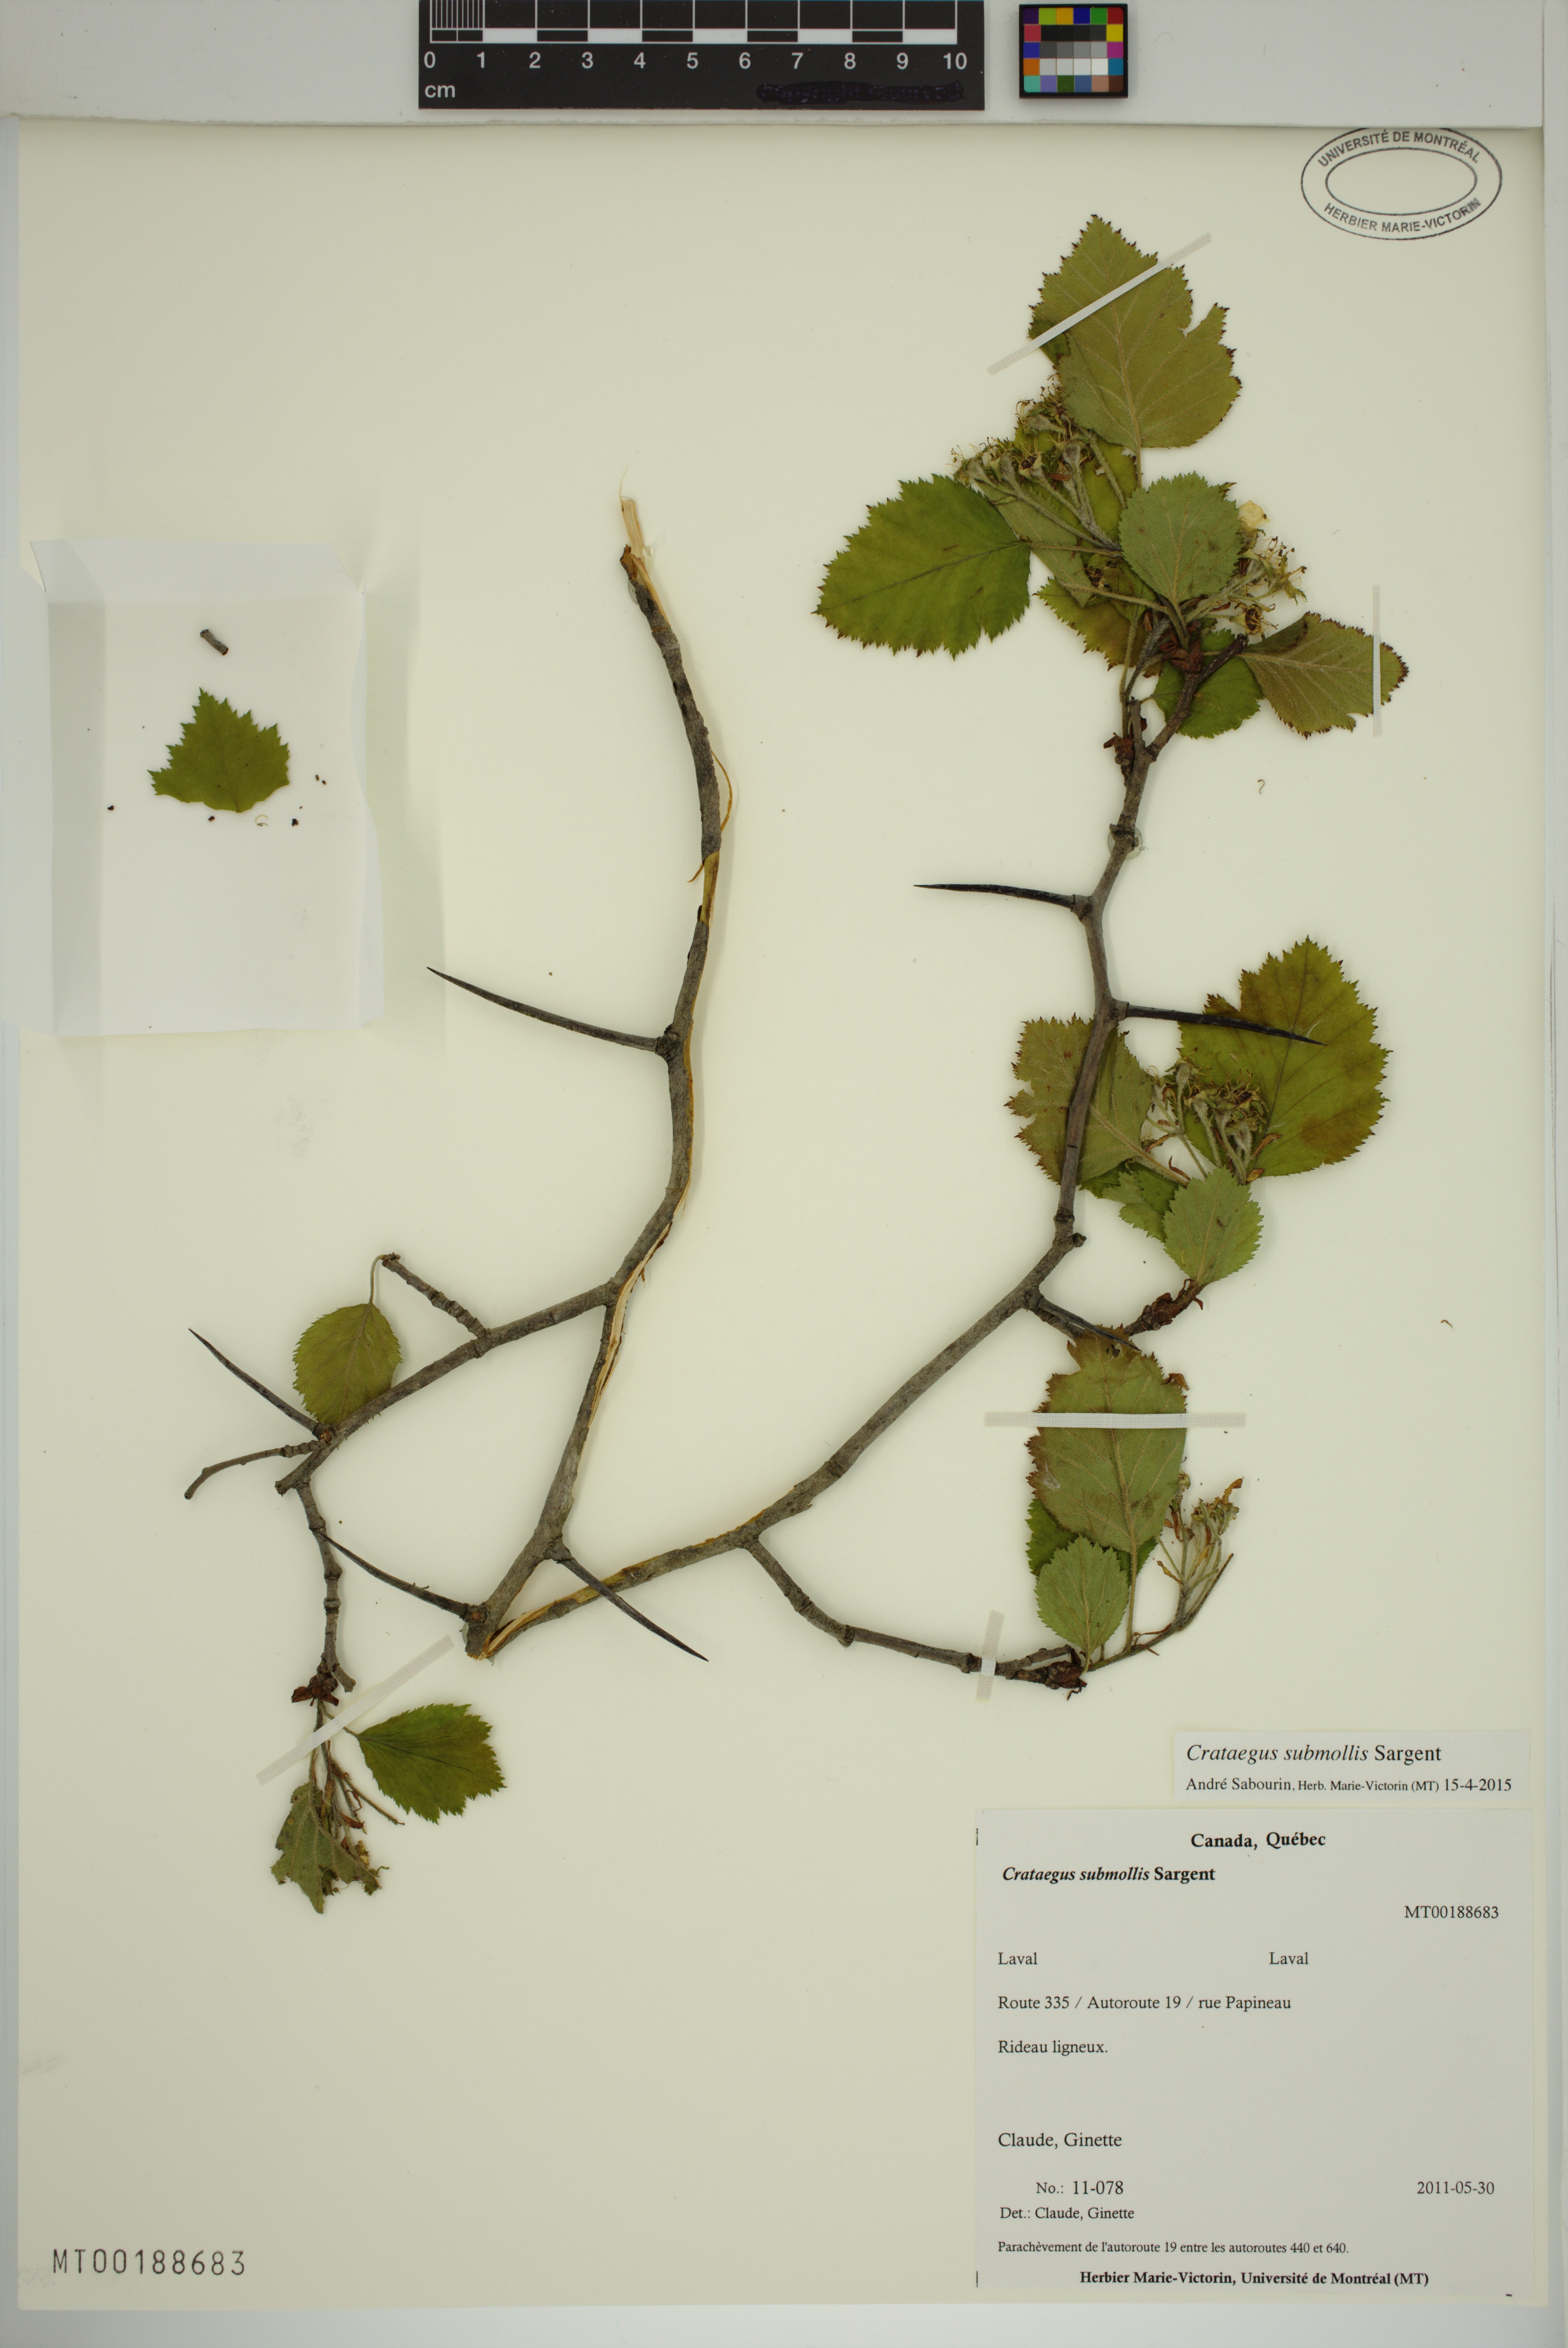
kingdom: Plantae
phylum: Tracheophyta
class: Magnoliopsida
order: Rosales
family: Rosaceae
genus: Crataegus
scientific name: Crataegus submollis
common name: Hairy cockspurthorn
